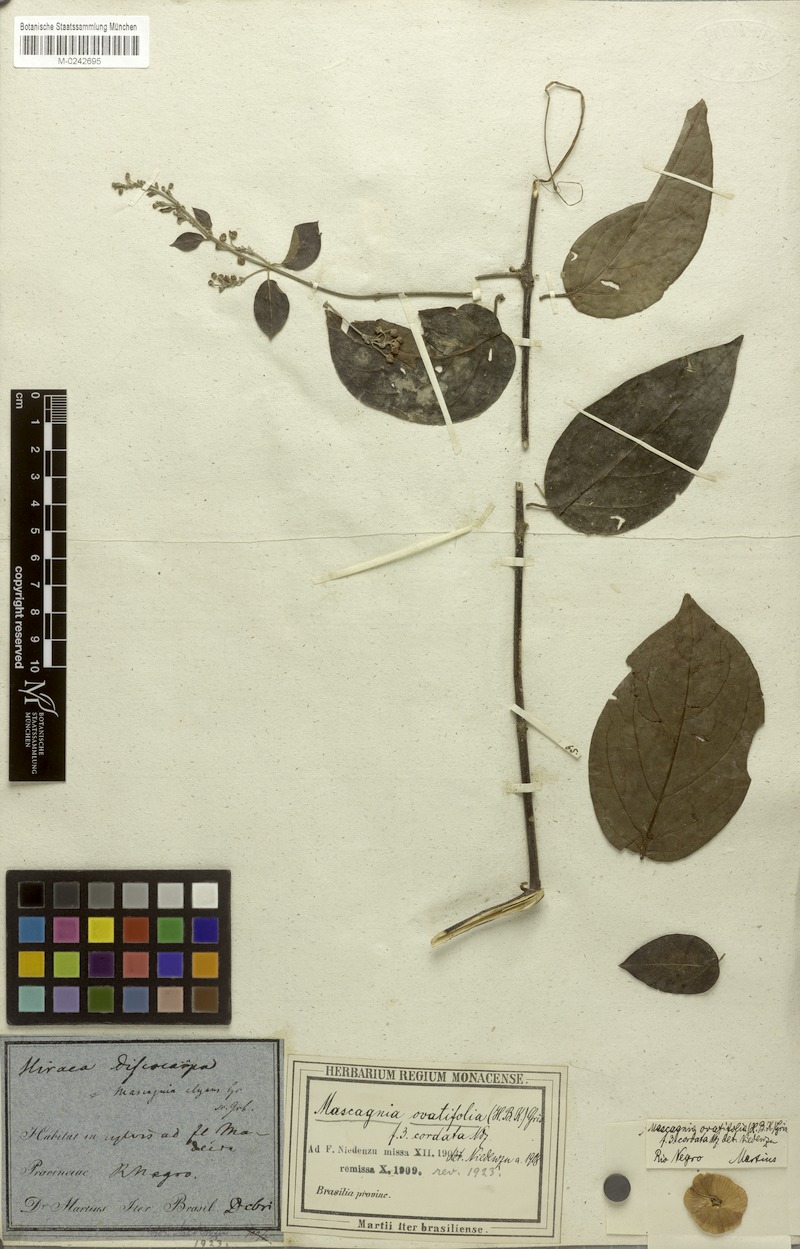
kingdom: Plantae
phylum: Tracheophyta
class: Magnoliopsida
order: Malpighiales
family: Malpighiaceae
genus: Mascagnia
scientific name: Mascagnia divaricata
